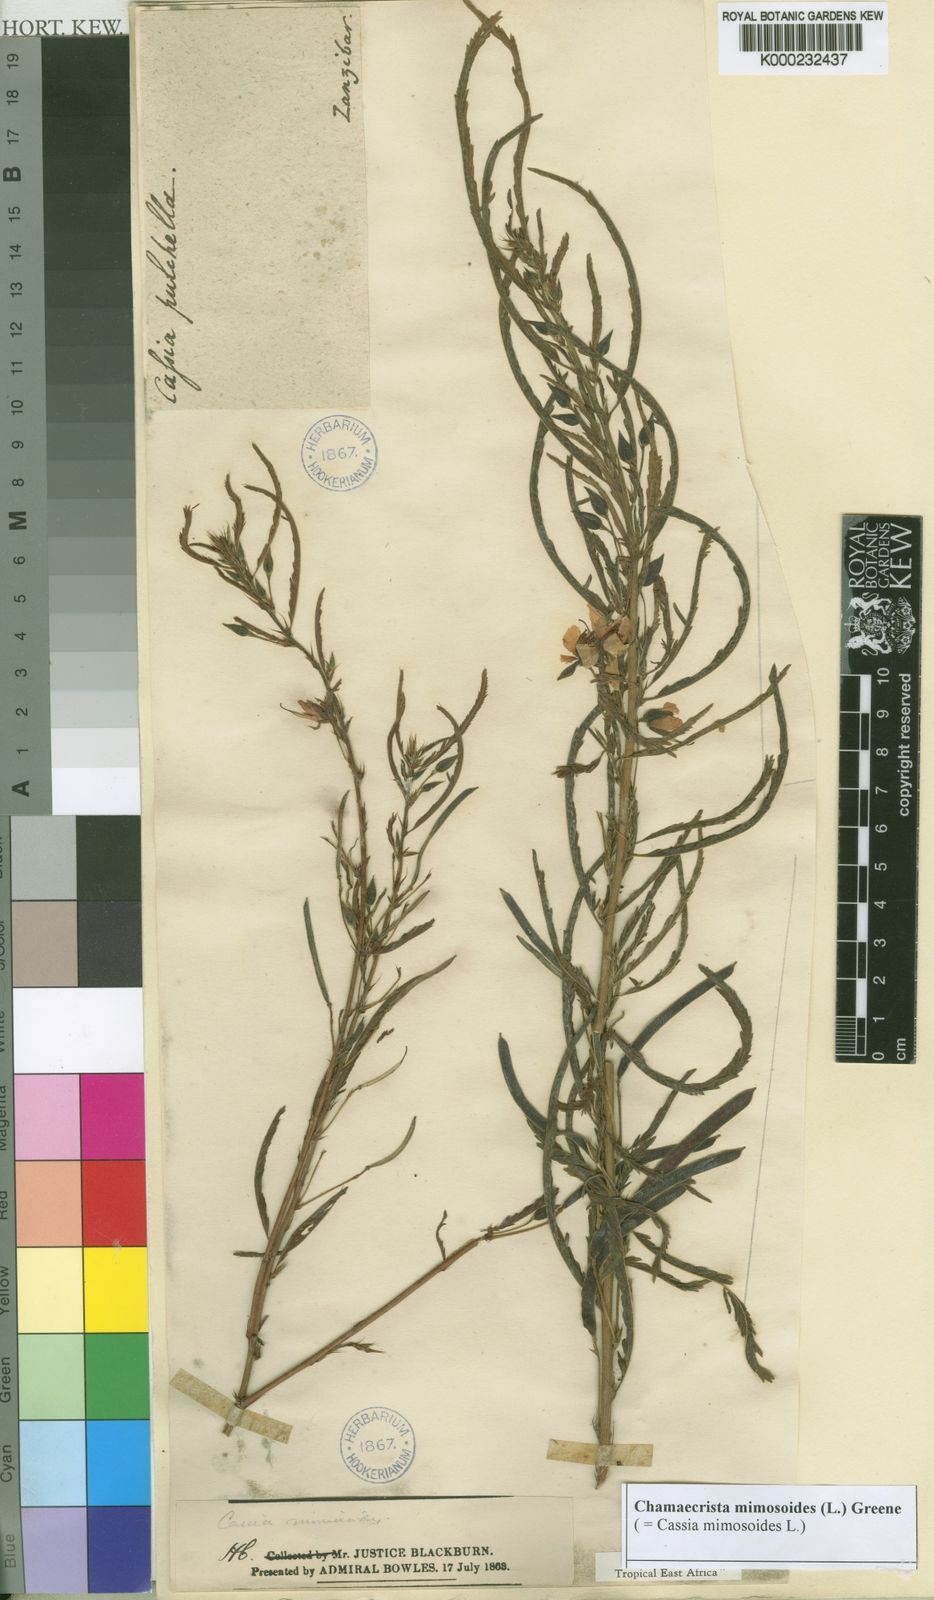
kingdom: Plantae
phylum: Tracheophyta
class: Magnoliopsida
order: Fabales
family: Fabaceae
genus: Chamaecrista
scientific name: Chamaecrista mimosoides
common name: Fish-bone cassia
